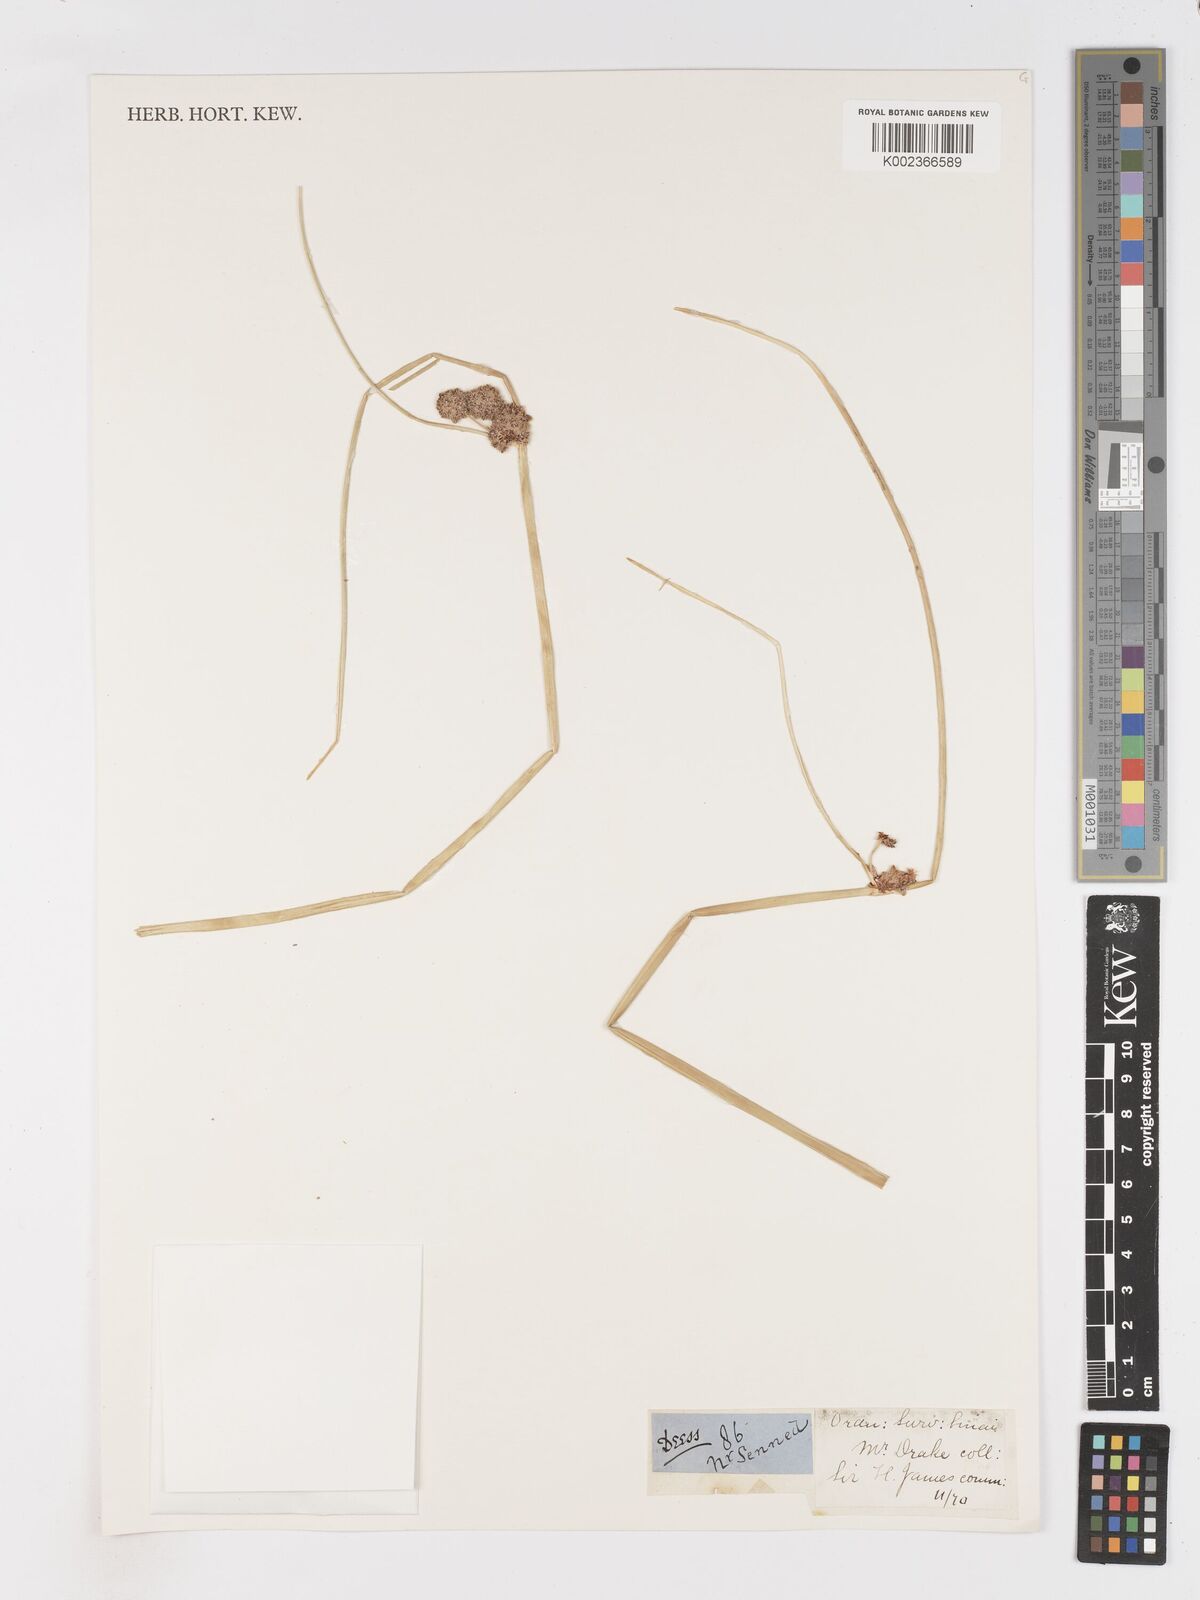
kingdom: Plantae
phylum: Tracheophyta
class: Liliopsida
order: Poales
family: Cyperaceae
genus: Scirpoides
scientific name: Scirpoides holoschoenus
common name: Round-headed club-rush
